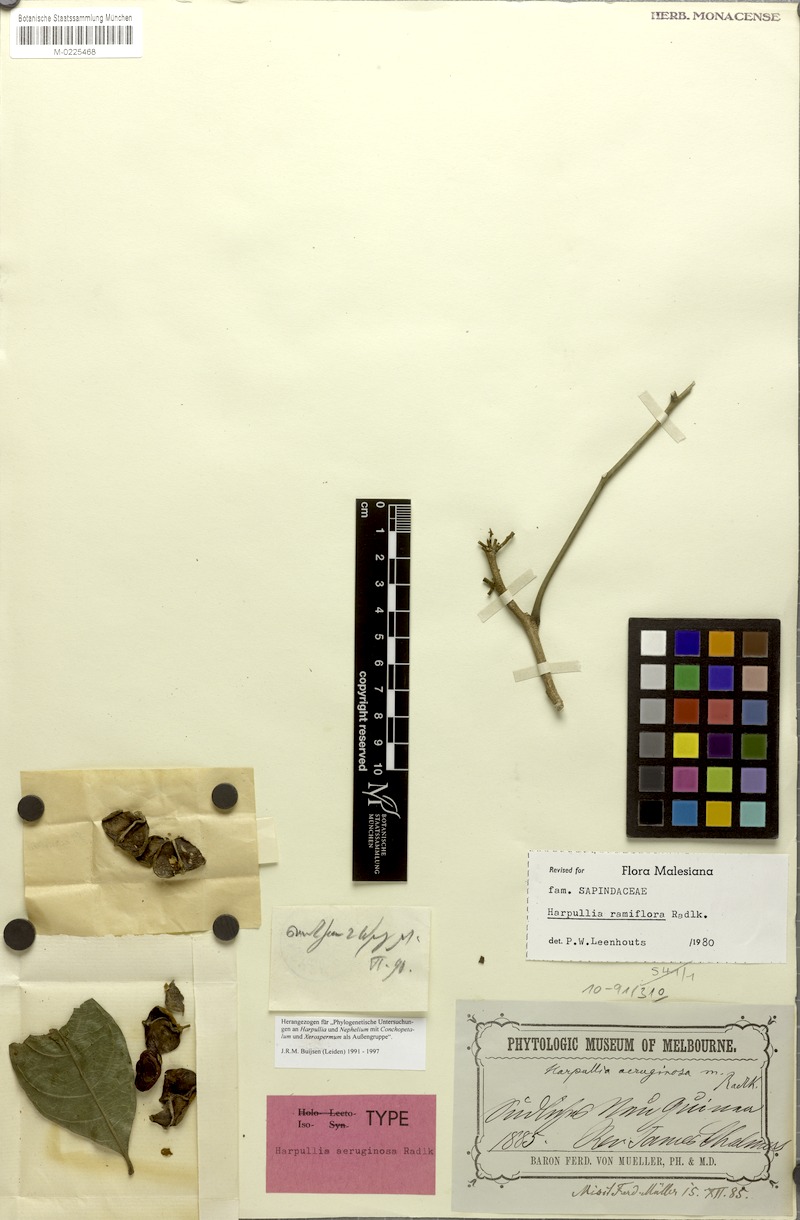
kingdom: Plantae
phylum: Tracheophyta
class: Magnoliopsida
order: Sapindales
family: Sapindaceae
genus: Harpullia
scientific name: Harpullia ramiflora
